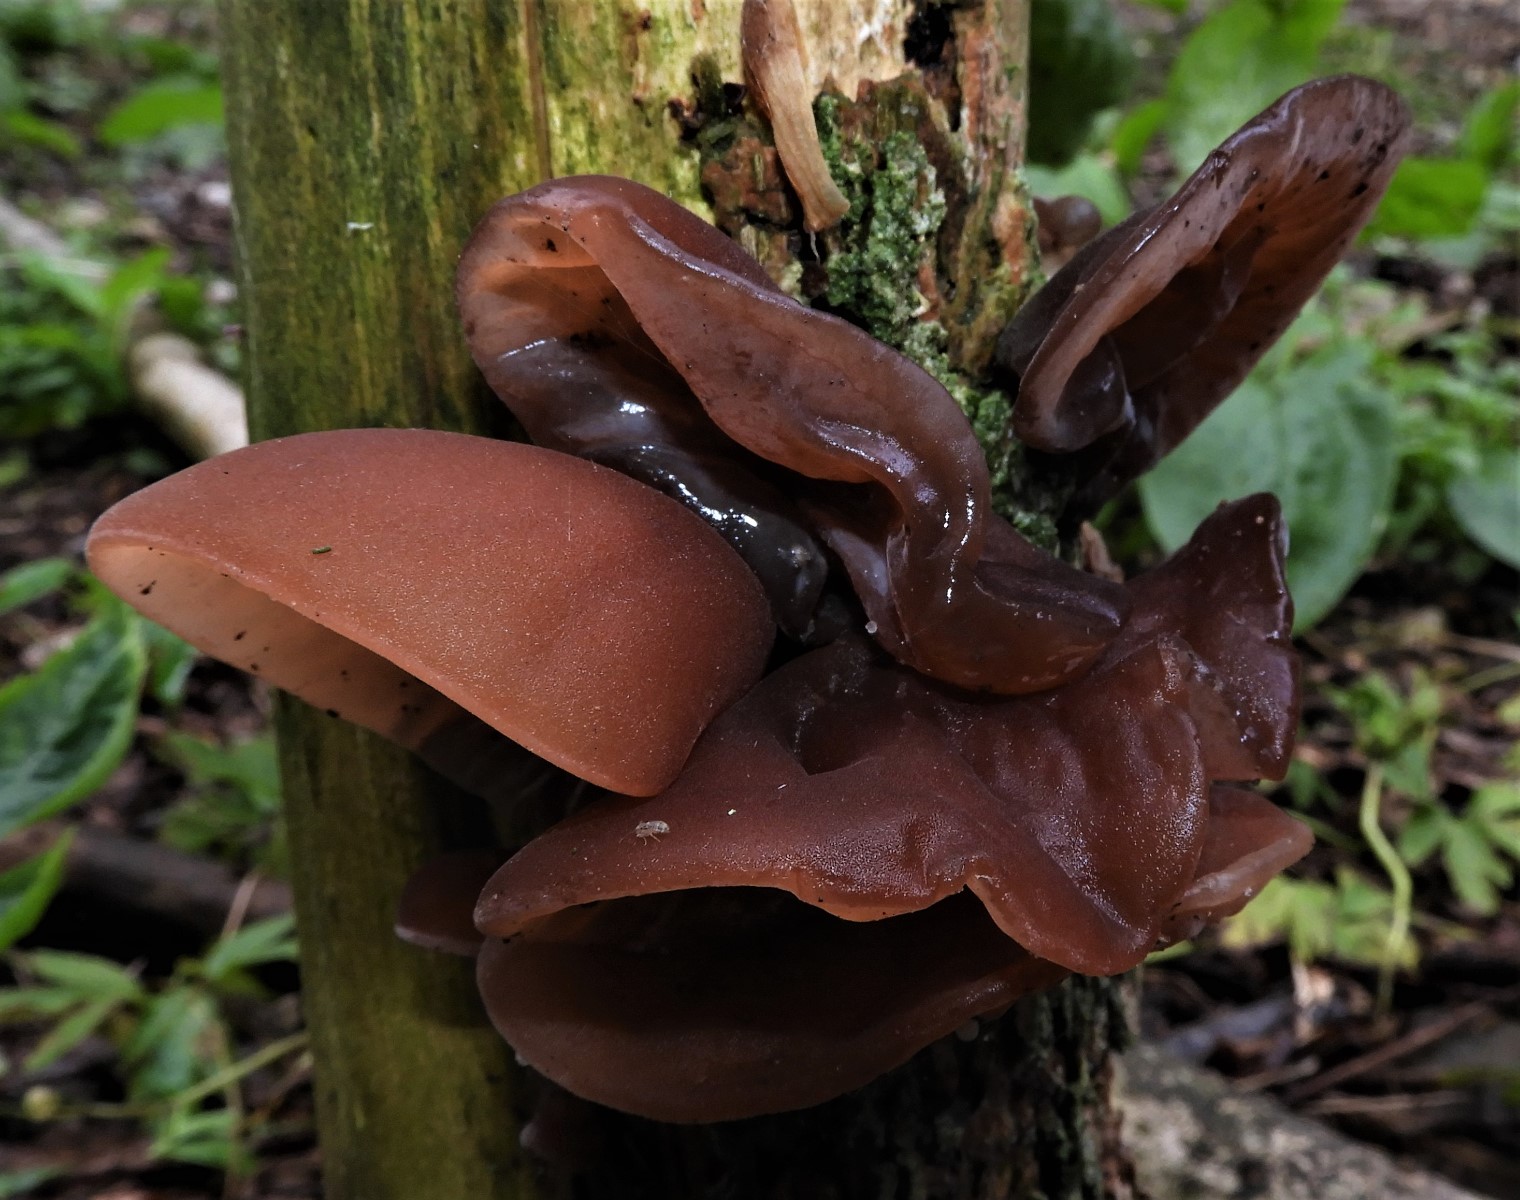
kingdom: Fungi
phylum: Basidiomycota
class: Agaricomycetes
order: Auriculariales
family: Auriculariaceae
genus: Auricularia
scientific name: Auricularia auricula-judae
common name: almindelig judasøre
